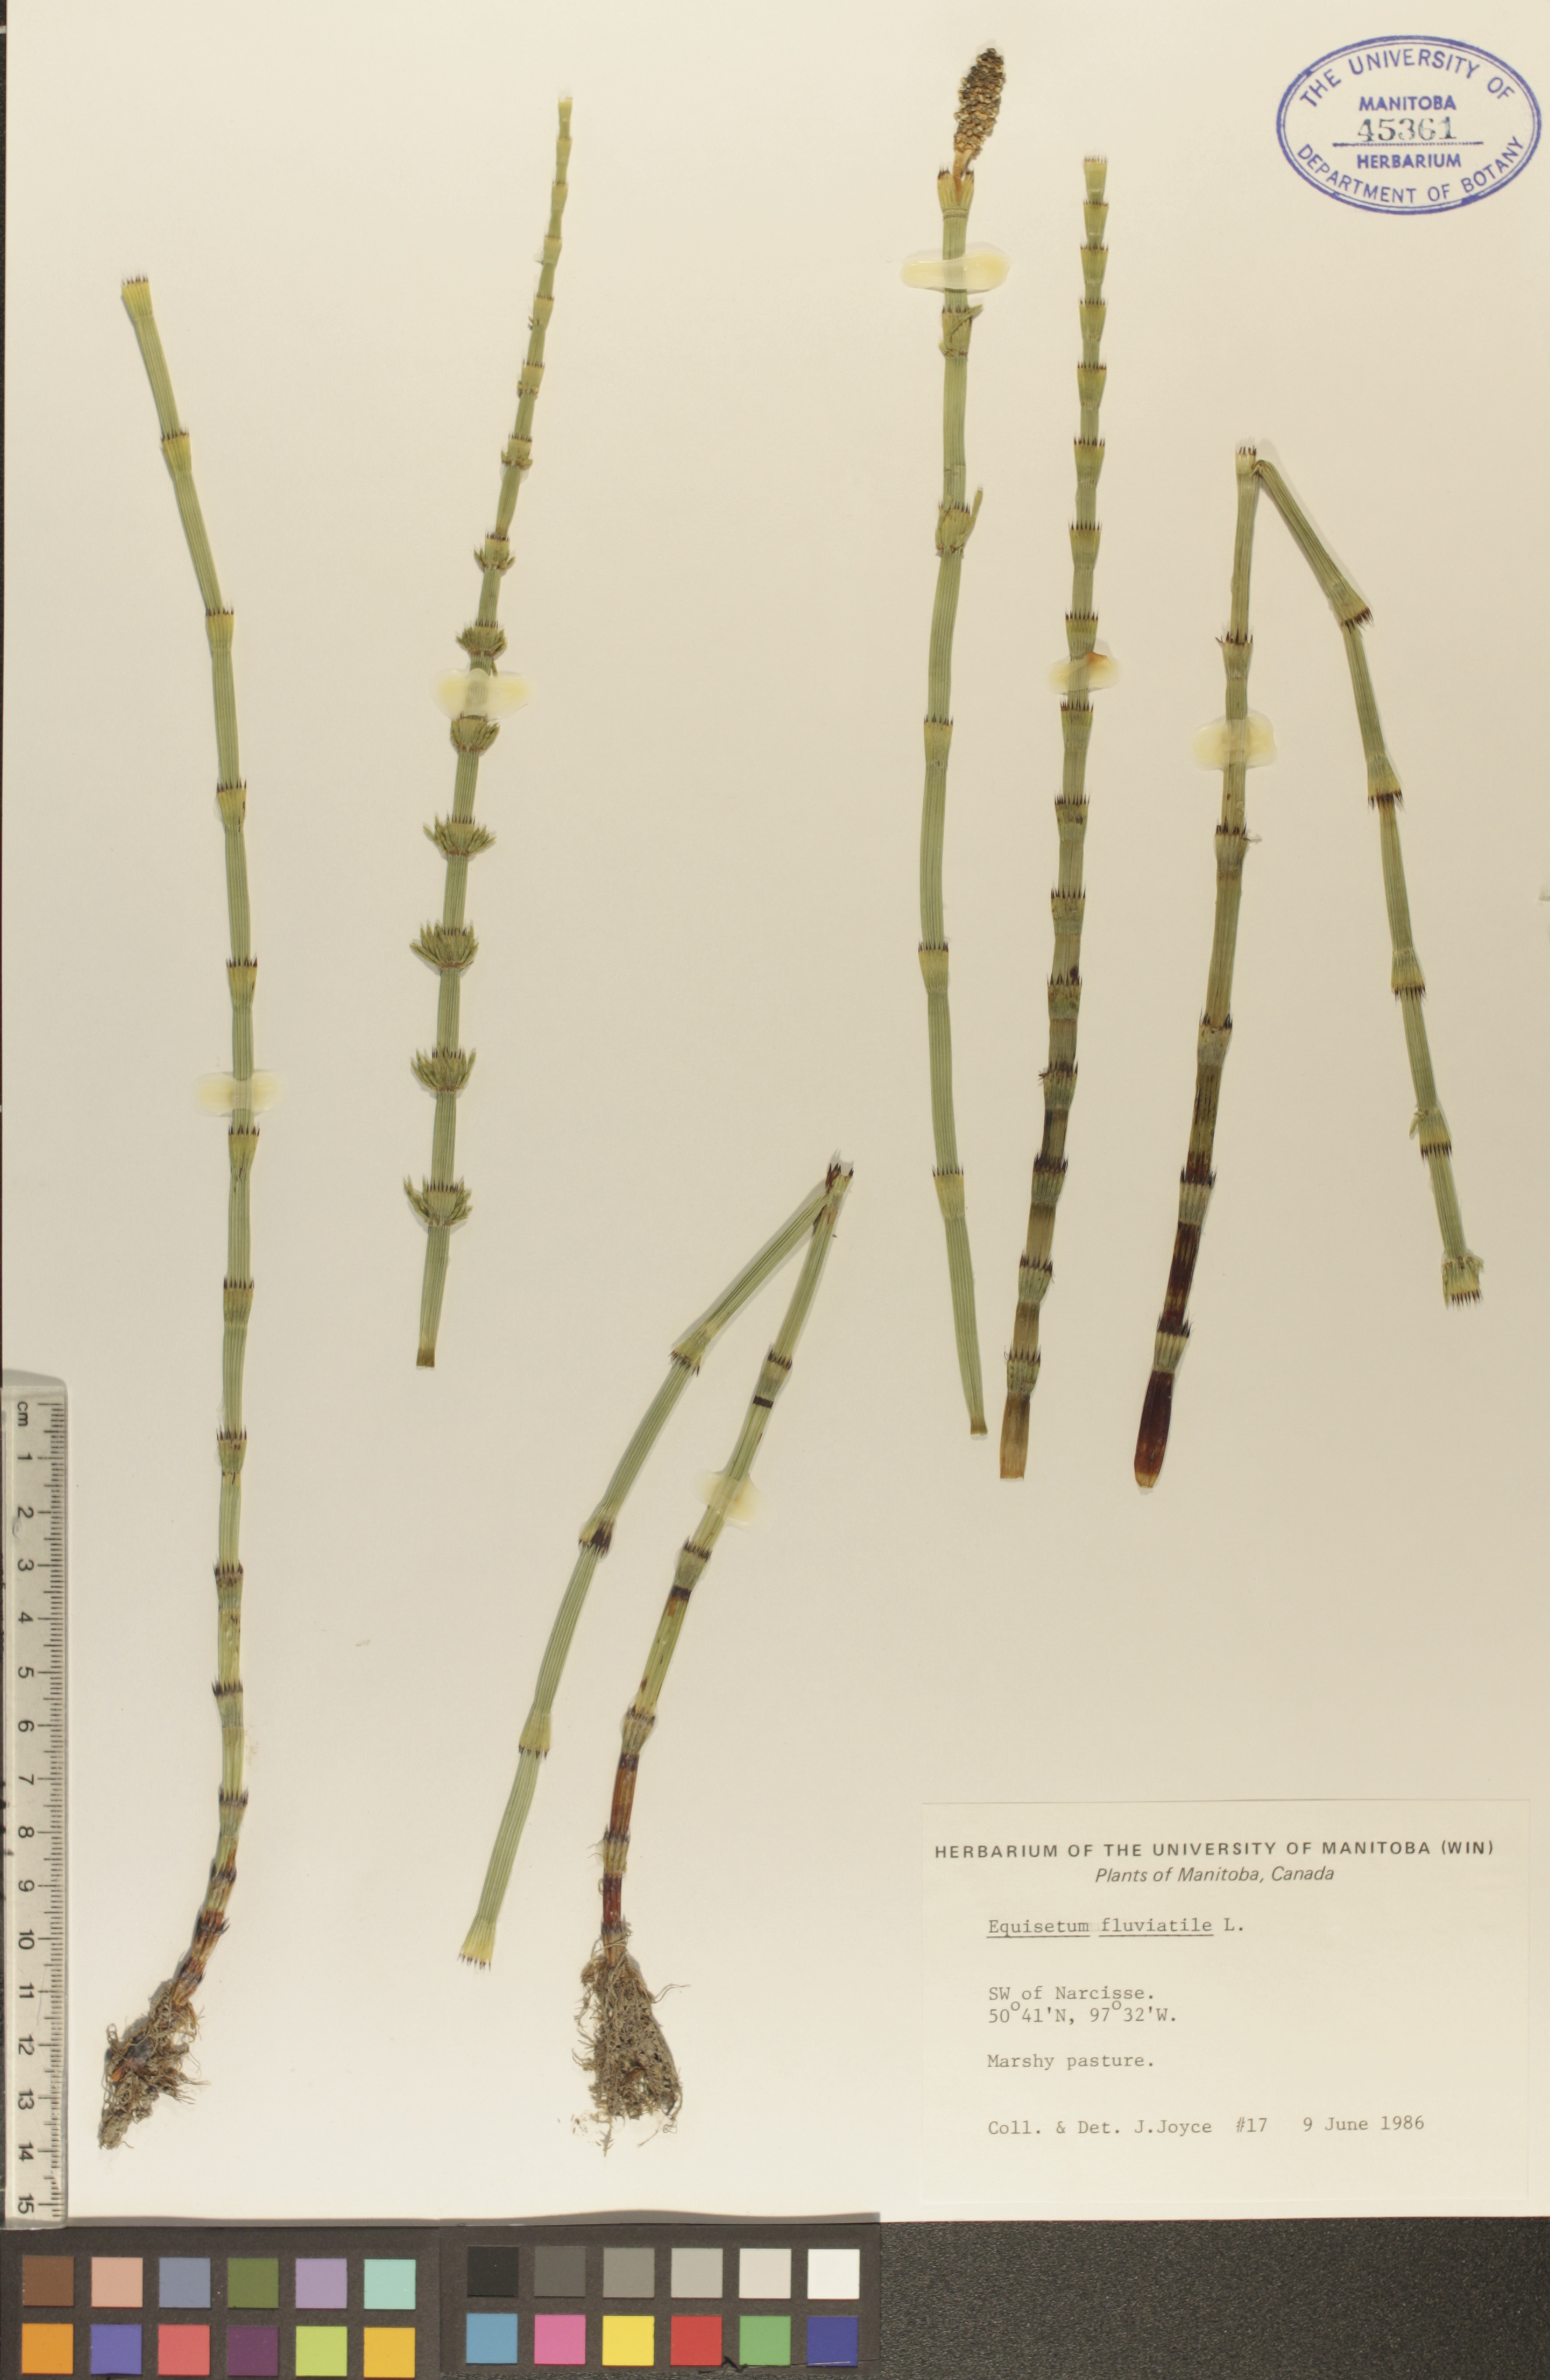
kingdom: Plantae
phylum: Tracheophyta
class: Polypodiopsida
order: Equisetales
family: Equisetaceae
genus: Equisetum
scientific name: Equisetum fluviatile
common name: Water horsetail
